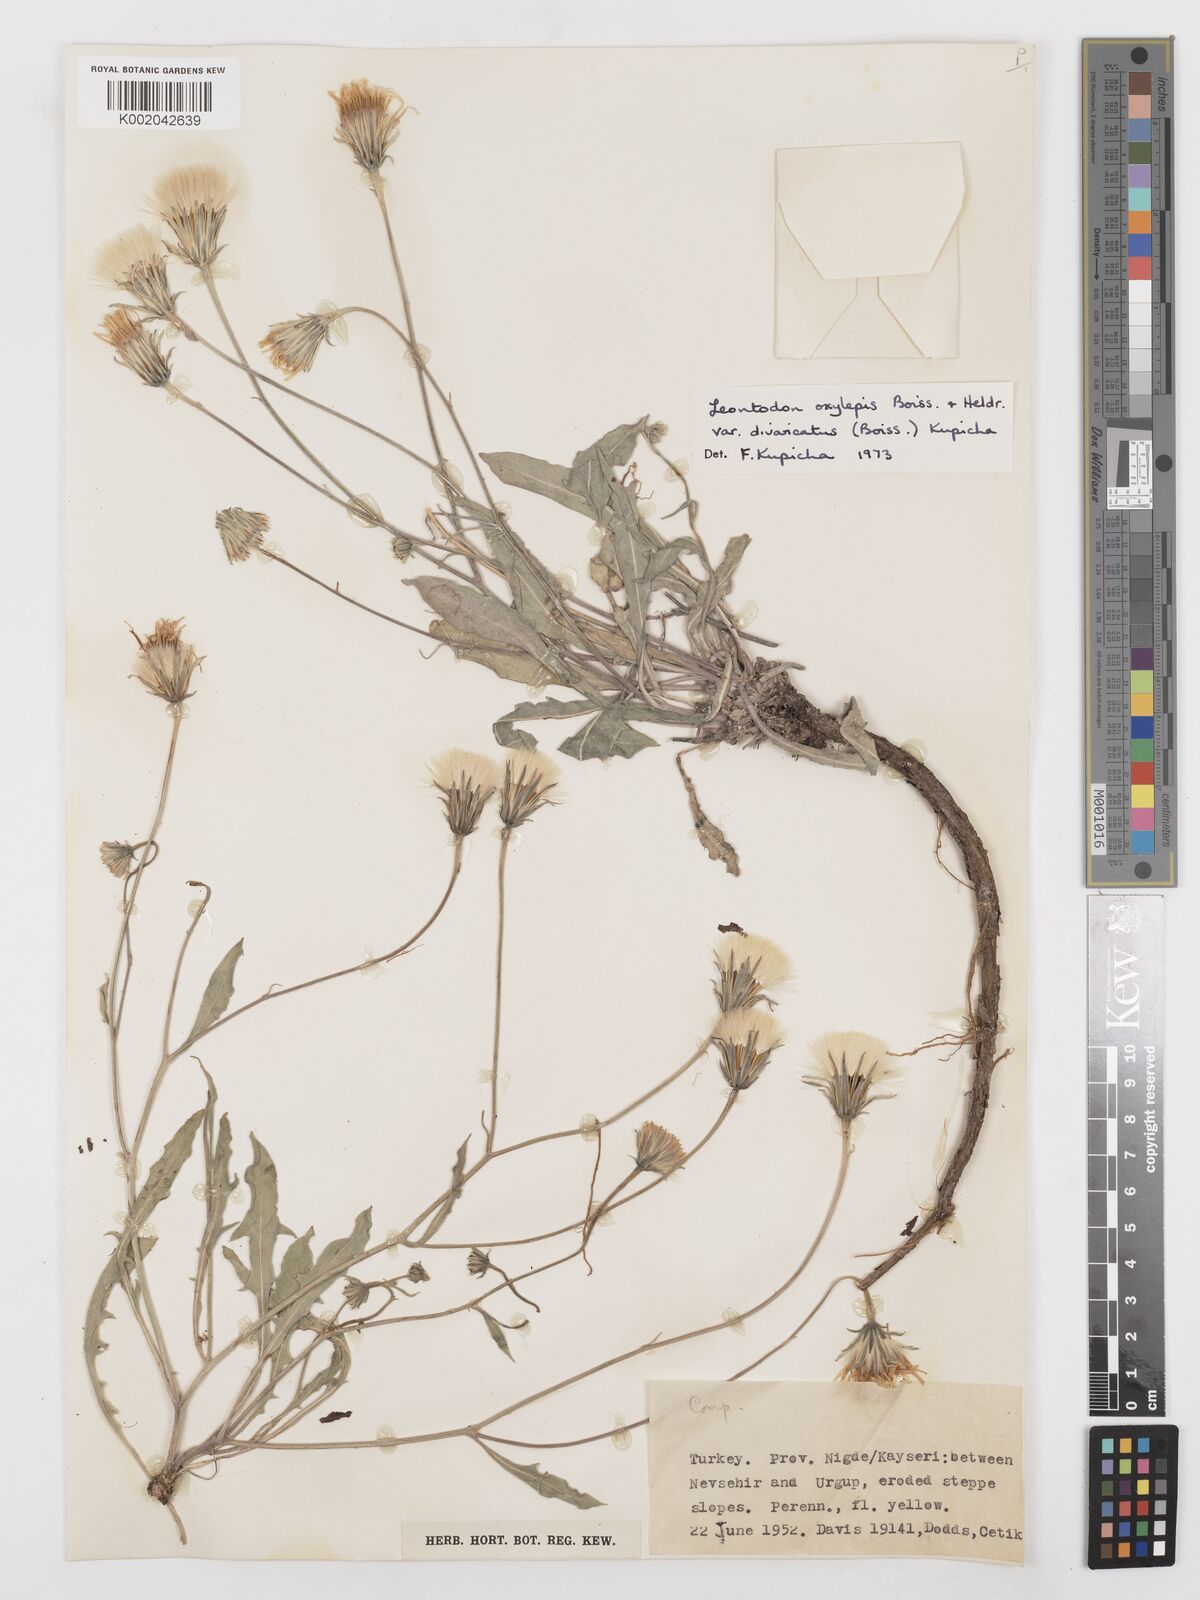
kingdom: Plantae
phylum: Tracheophyta
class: Magnoliopsida
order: Asterales
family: Asteraceae
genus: Leontodon
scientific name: Leontodon oxylepis
